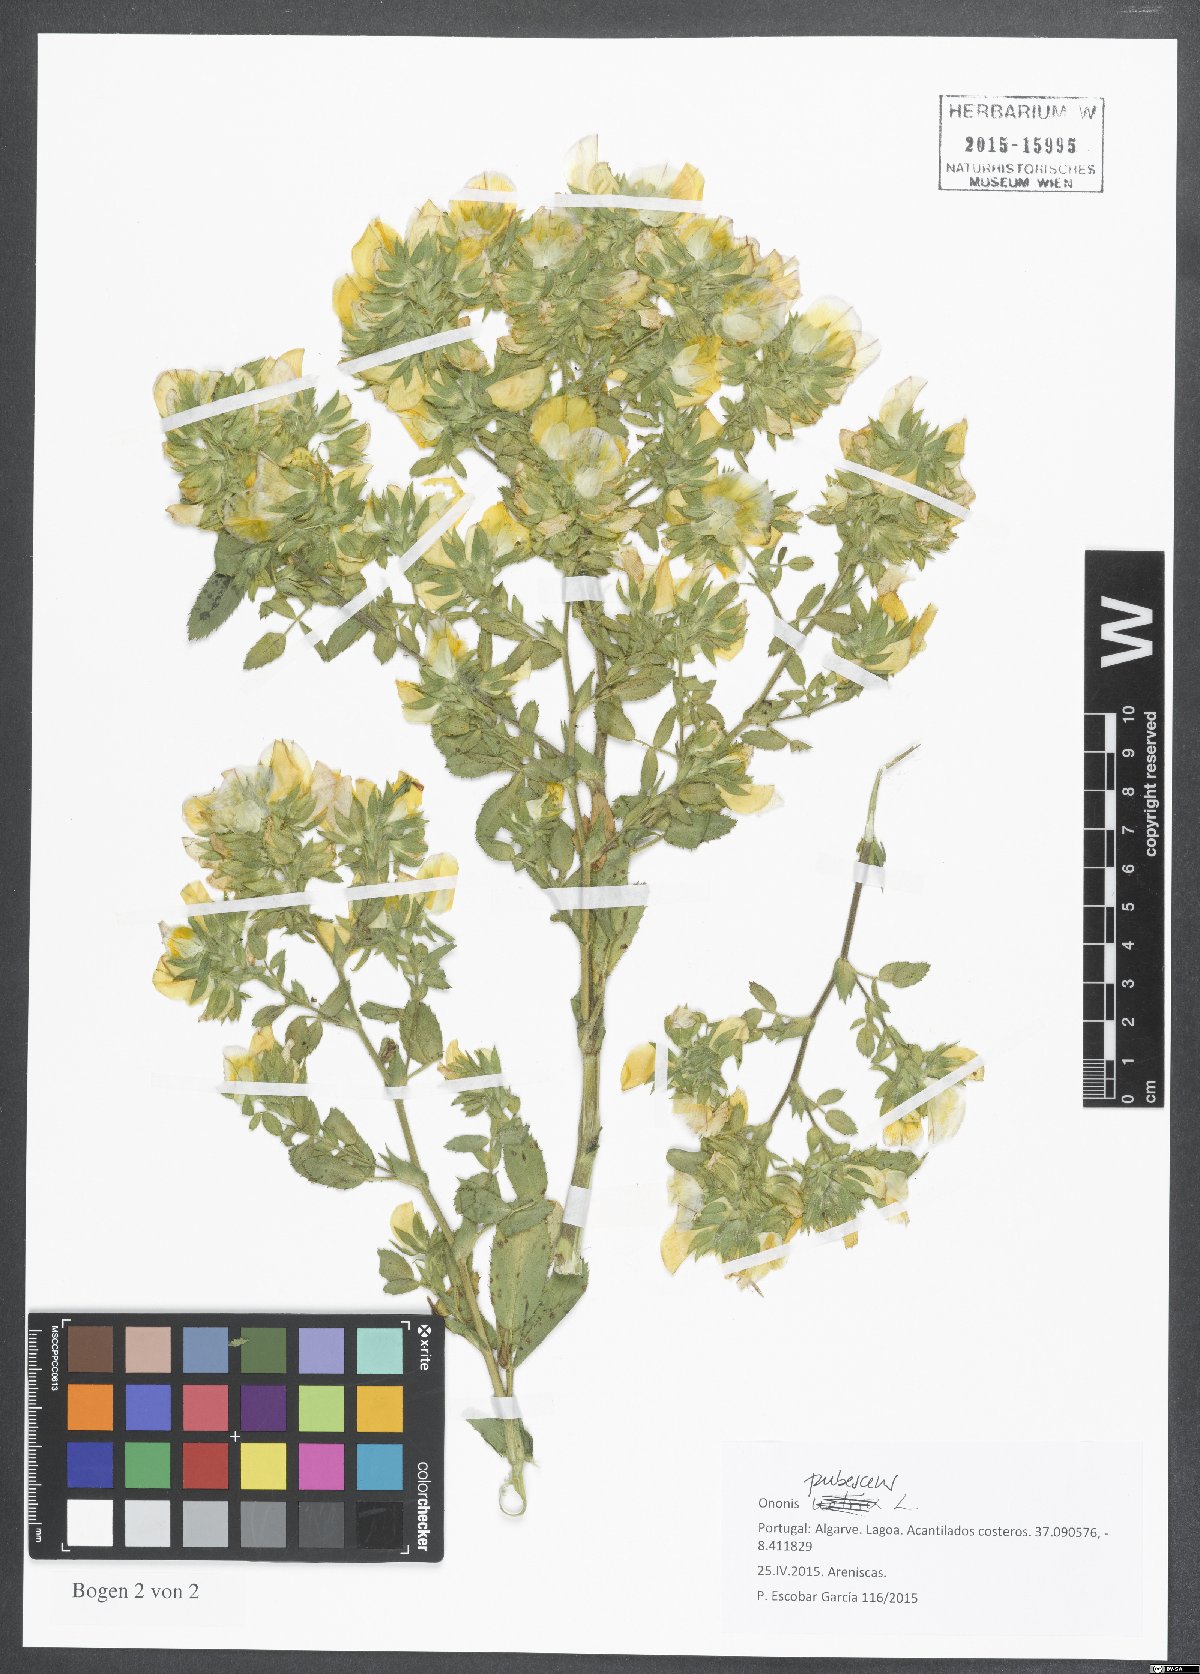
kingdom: Plantae
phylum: Tracheophyta
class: Magnoliopsida
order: Fabales
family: Fabaceae
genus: Ononis
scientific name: Ononis pubescens
